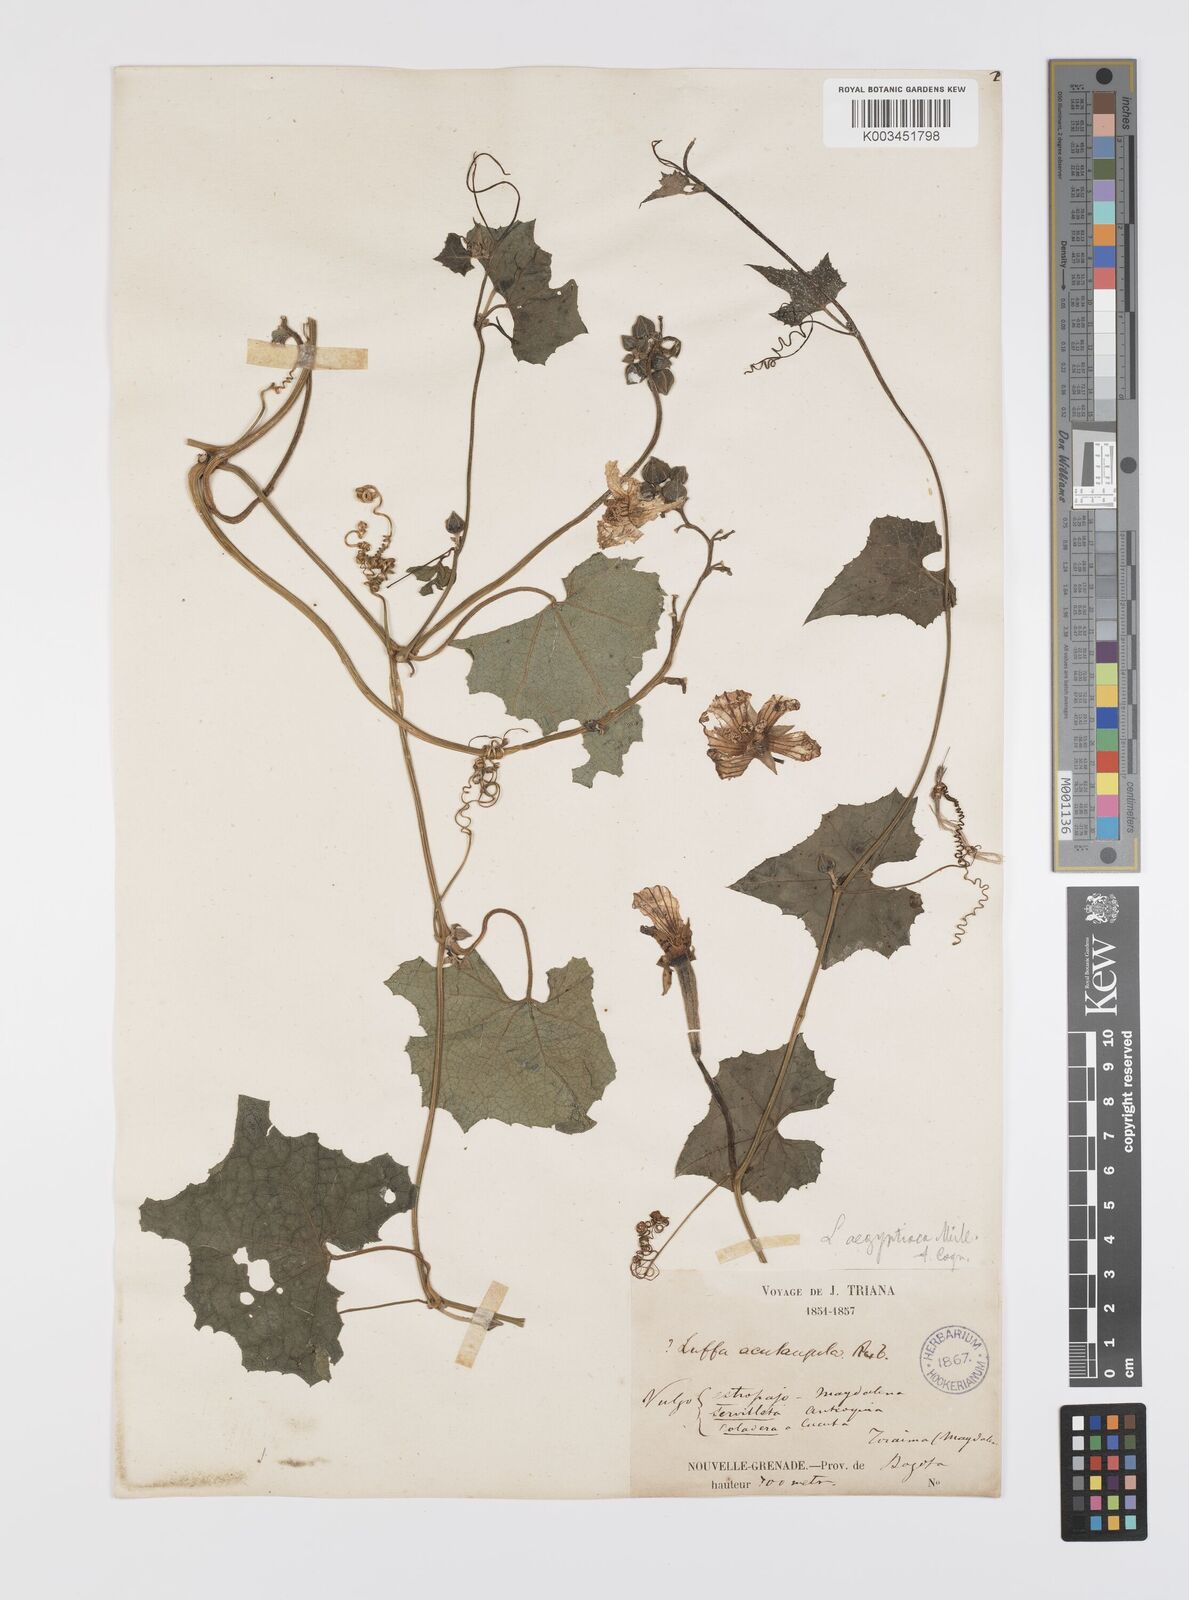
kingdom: Plantae
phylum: Tracheophyta
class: Magnoliopsida
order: Cucurbitales
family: Cucurbitaceae
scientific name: Cucurbitaceae
